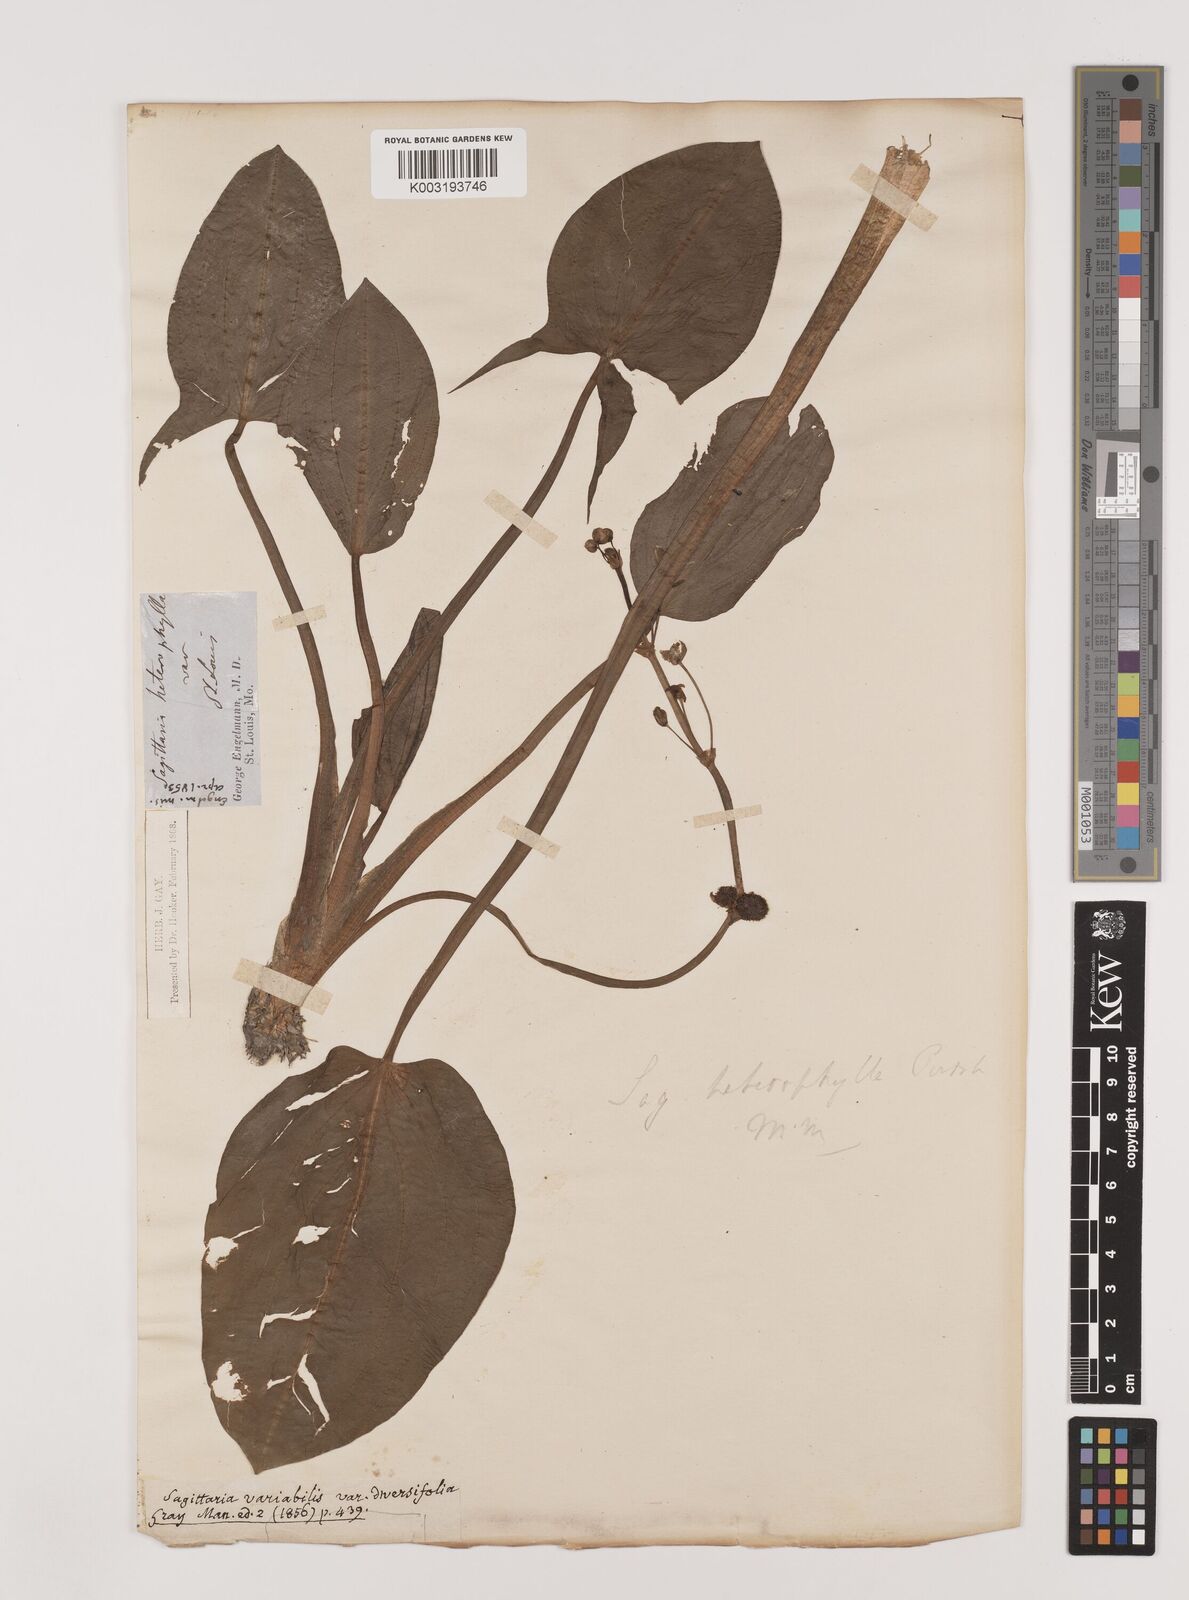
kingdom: Plantae
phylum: Tracheophyta
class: Liliopsida
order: Alismatales
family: Alismataceae
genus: Sagittaria
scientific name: Sagittaria rigida
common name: Canadian arrowhead
